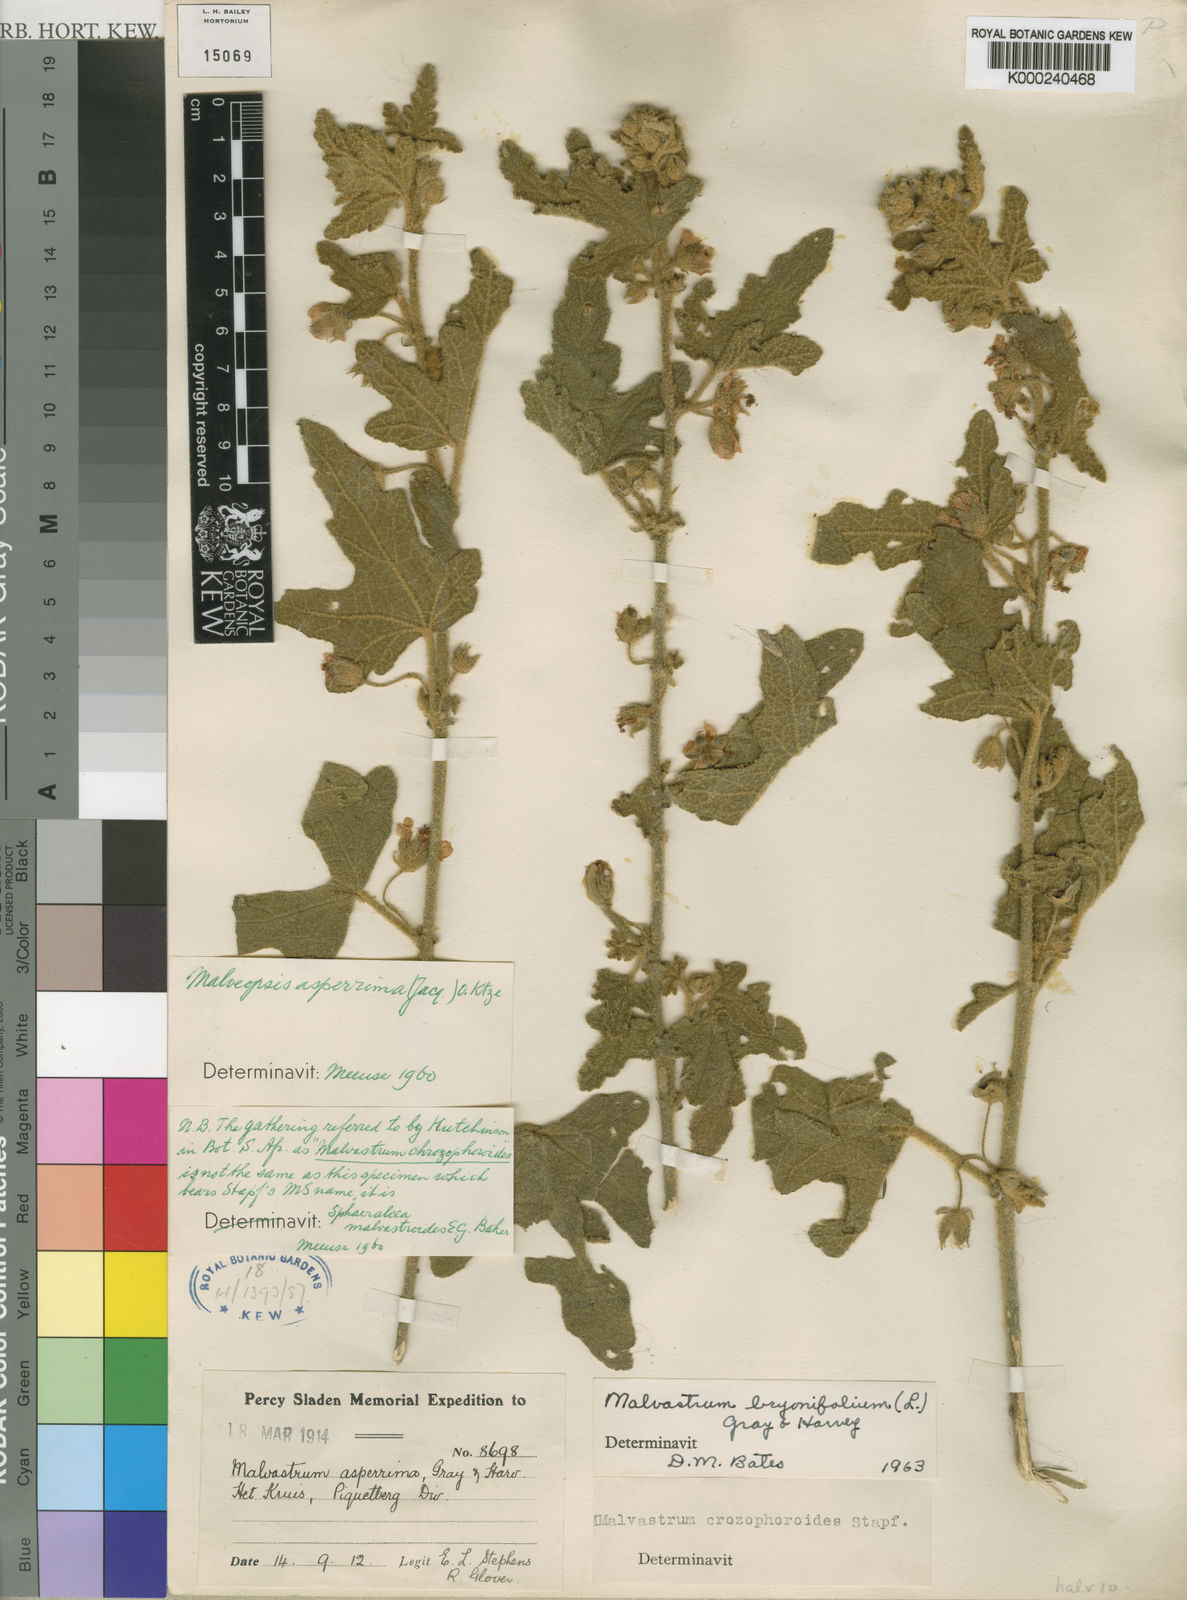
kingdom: Plantae
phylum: Tracheophyta
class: Magnoliopsida
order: Malvales
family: Malvaceae
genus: Anisodontea
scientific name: Anisodontea bryoniifolia
